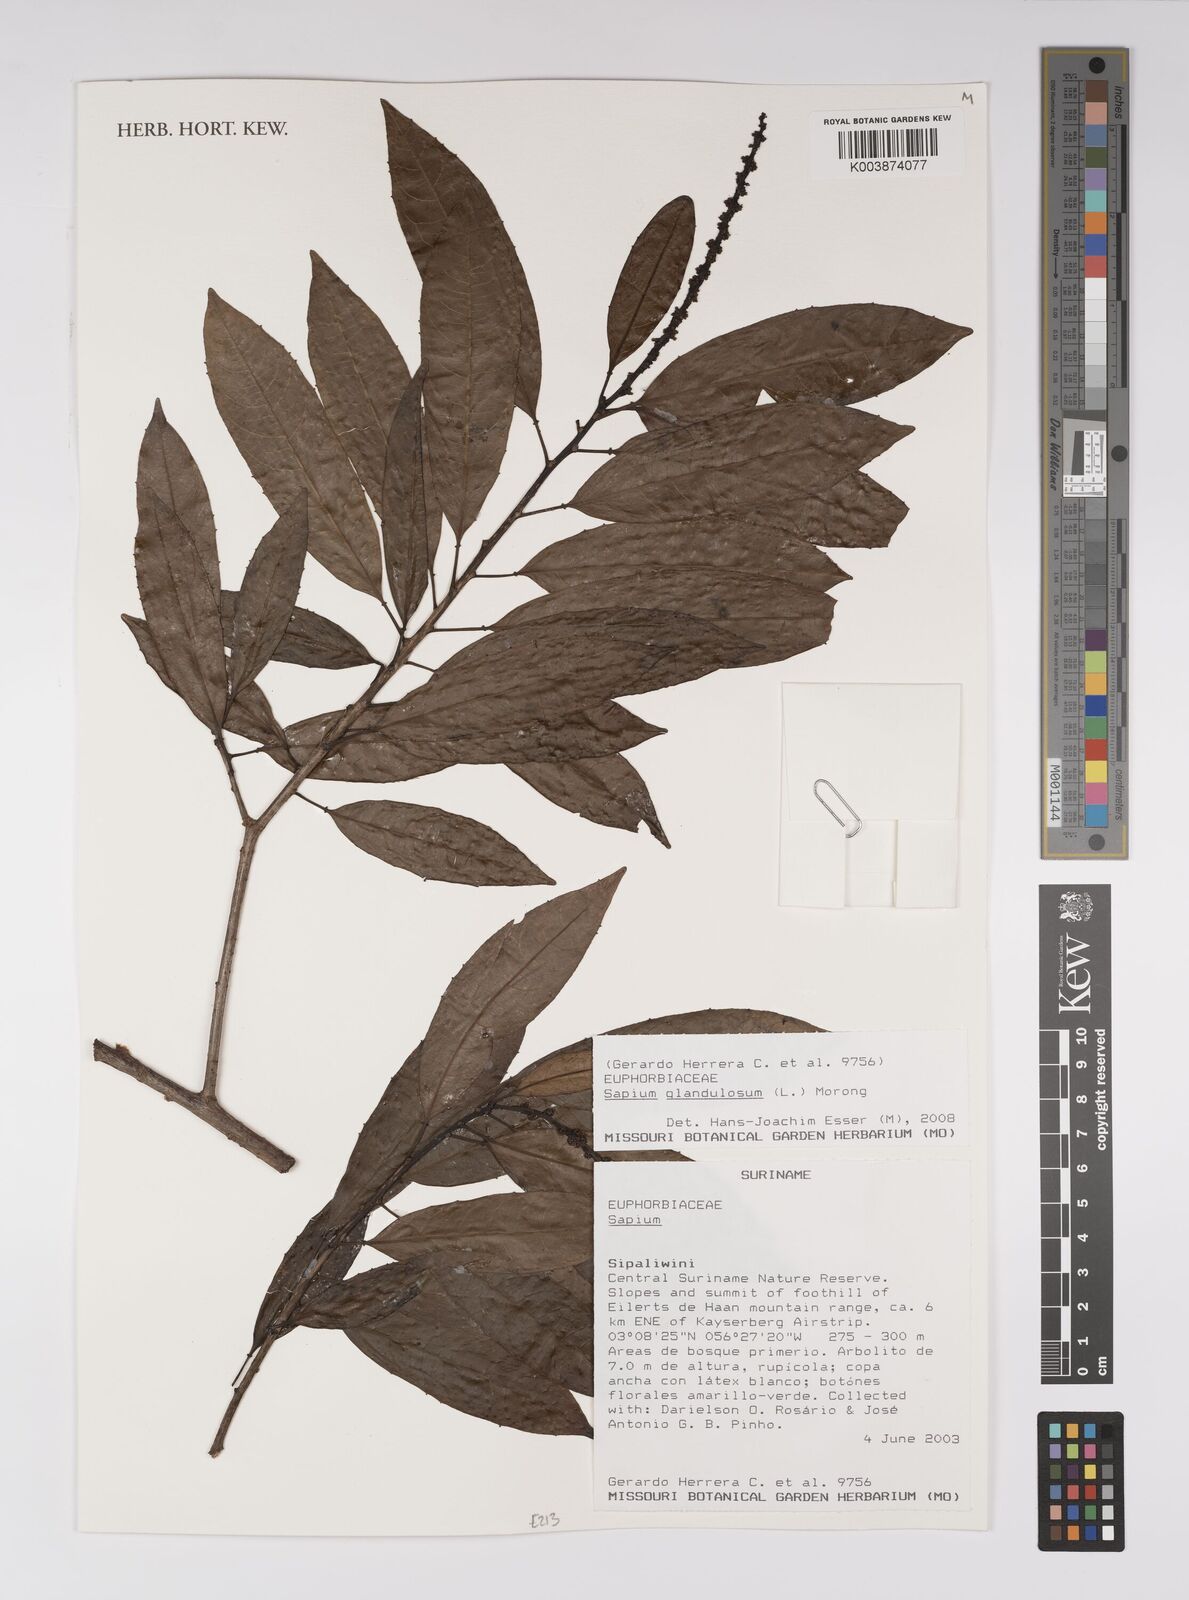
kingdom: Plantae
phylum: Tracheophyta
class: Magnoliopsida
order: Malpighiales
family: Euphorbiaceae
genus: Sapium
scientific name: Sapium glandulosum
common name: Milktree
